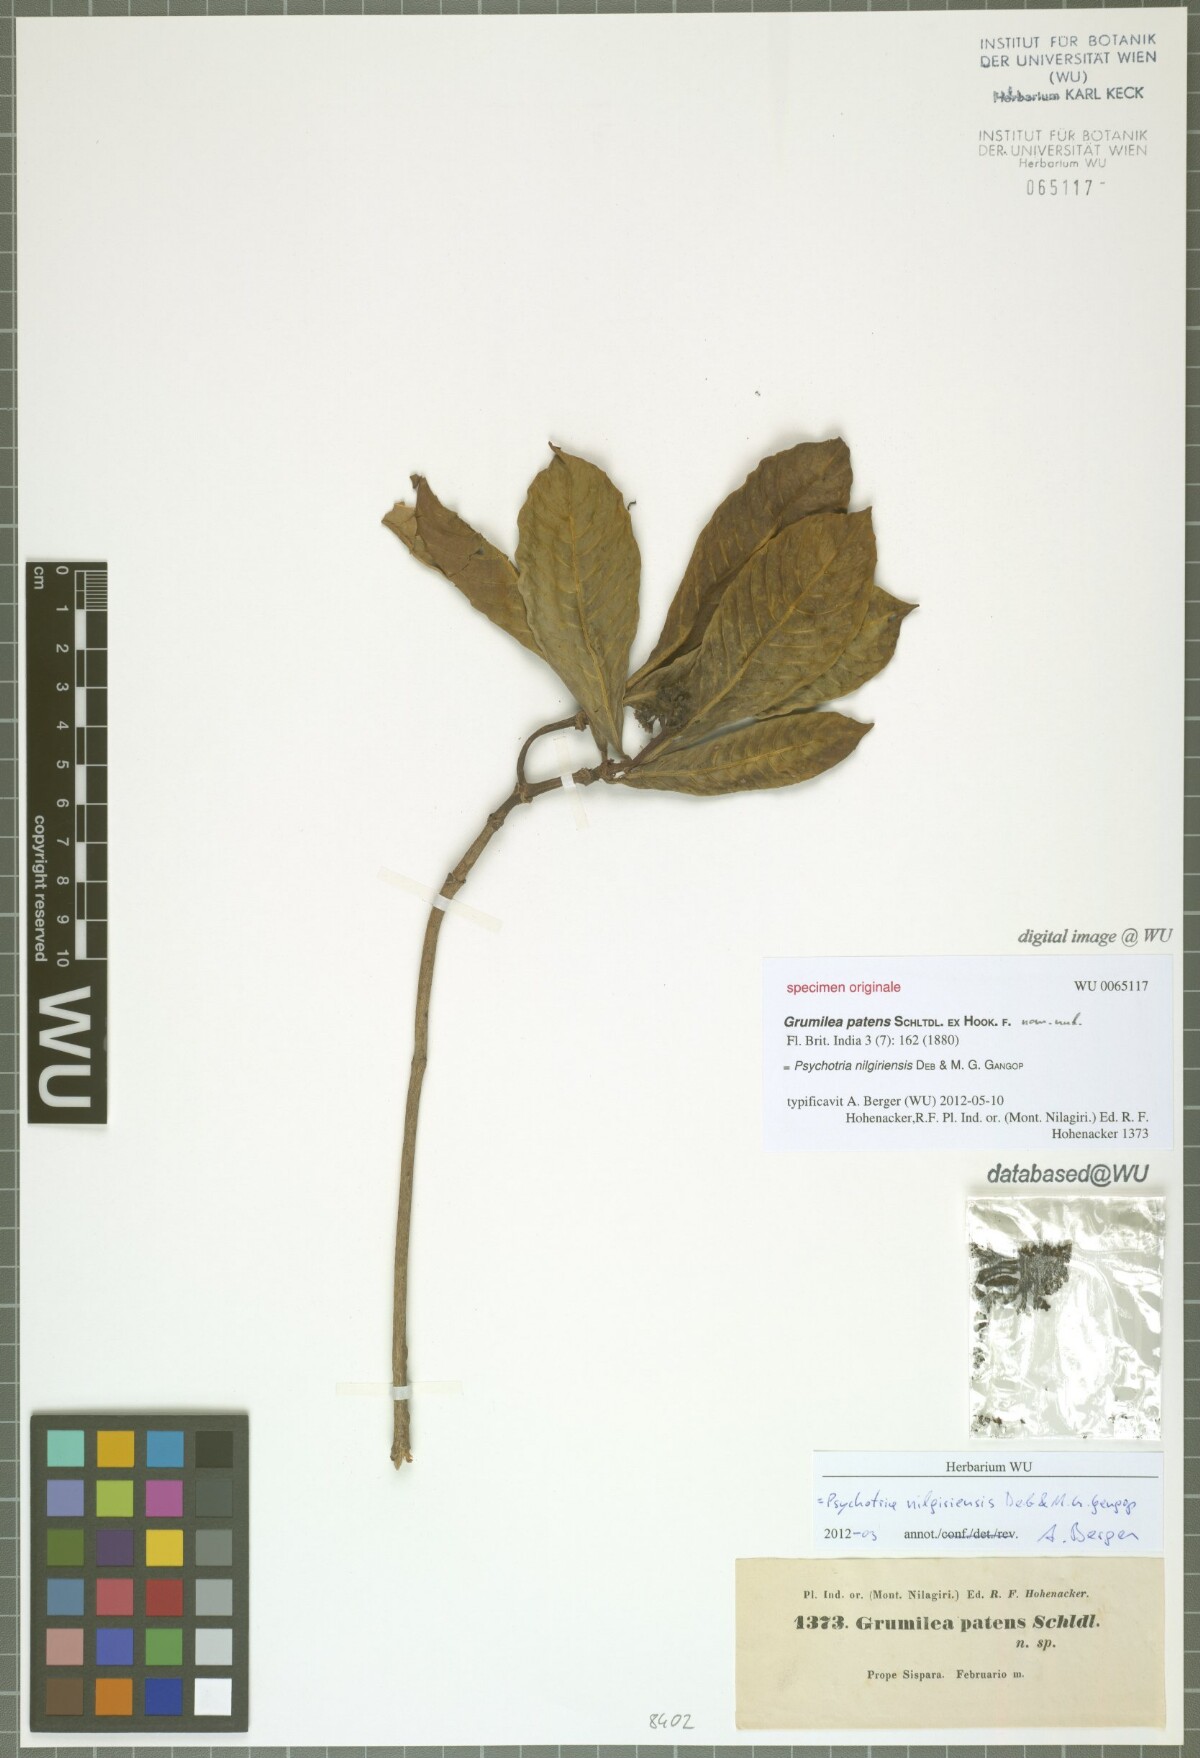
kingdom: Plantae
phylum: Tracheophyta
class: Magnoliopsida
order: Gentianales
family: Rubiaceae
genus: Psychotria
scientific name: Psychotria nilgiriensis
